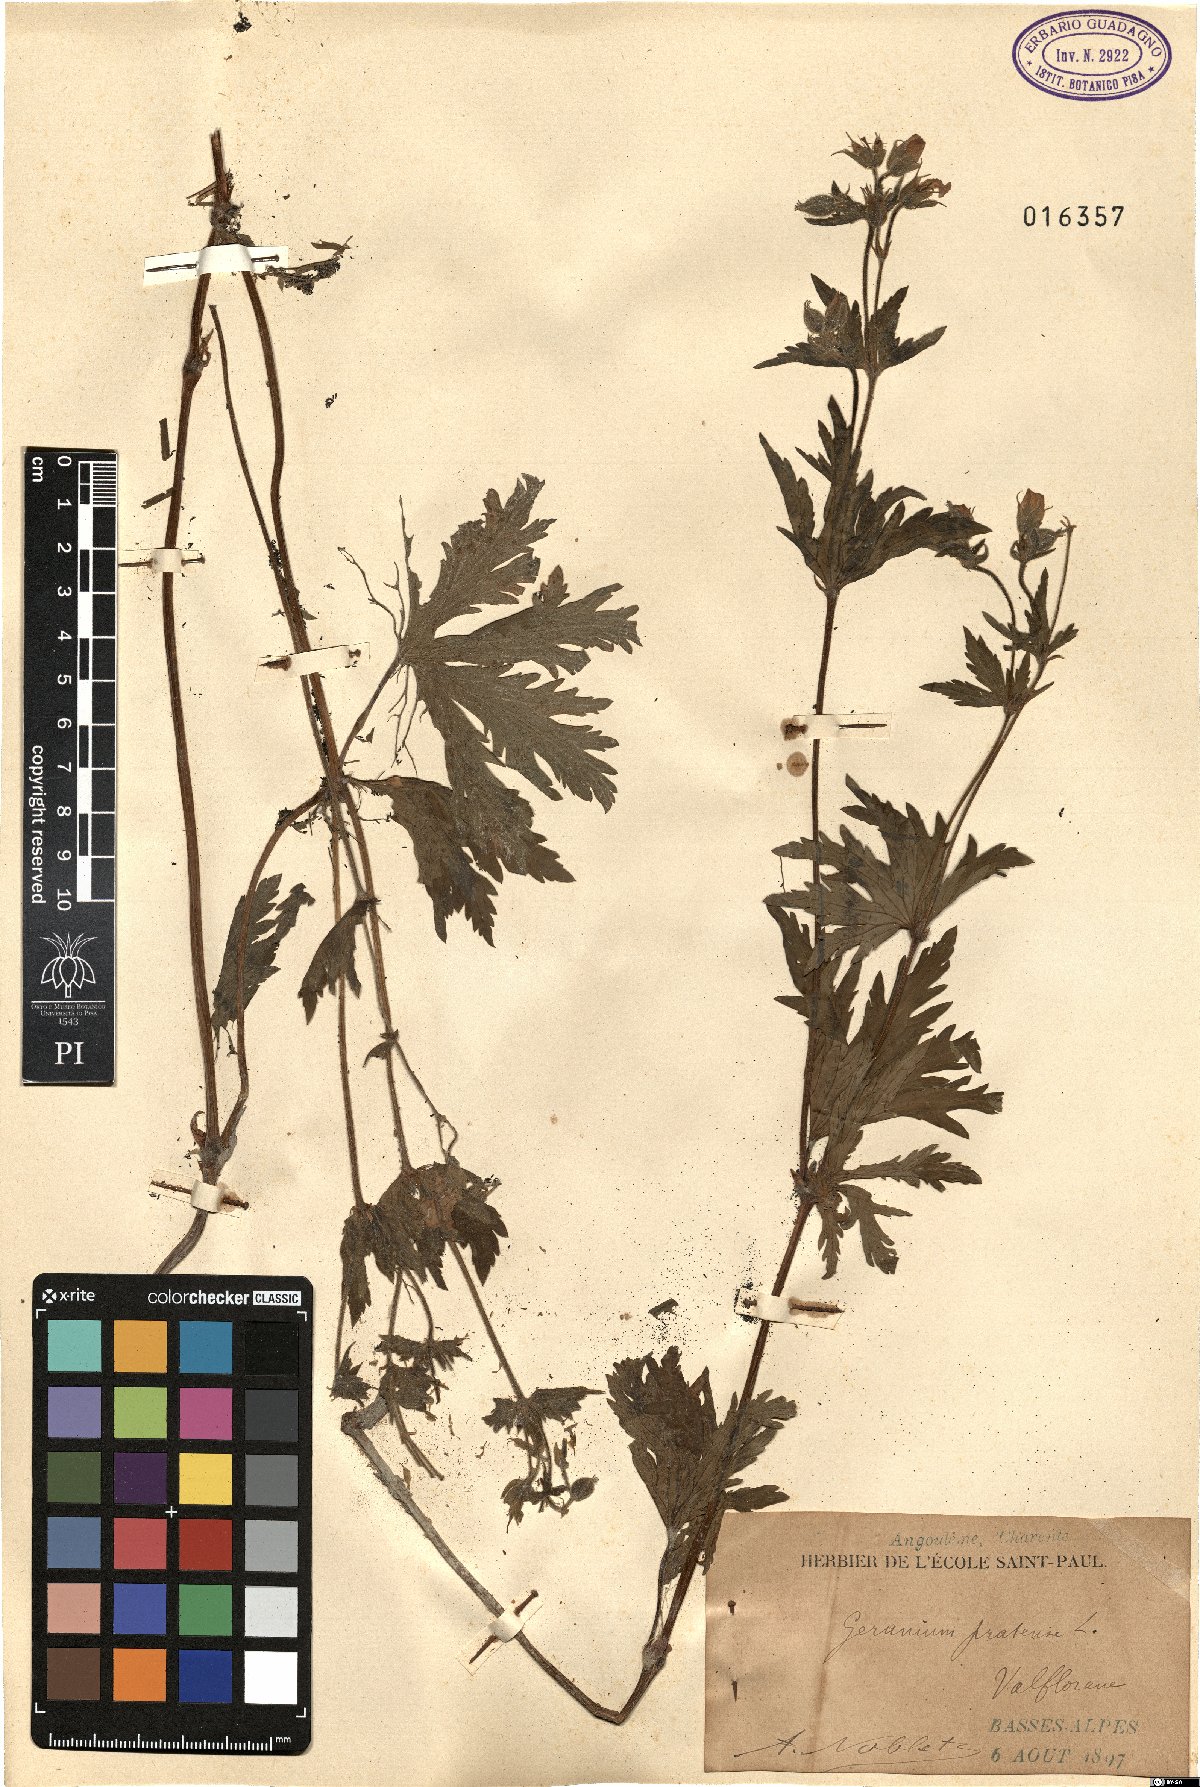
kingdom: Plantae
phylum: Tracheophyta
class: Magnoliopsida
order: Geraniales
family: Geraniaceae
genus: Geranium
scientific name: Geranium pratense
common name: Meadow crane's-bill
